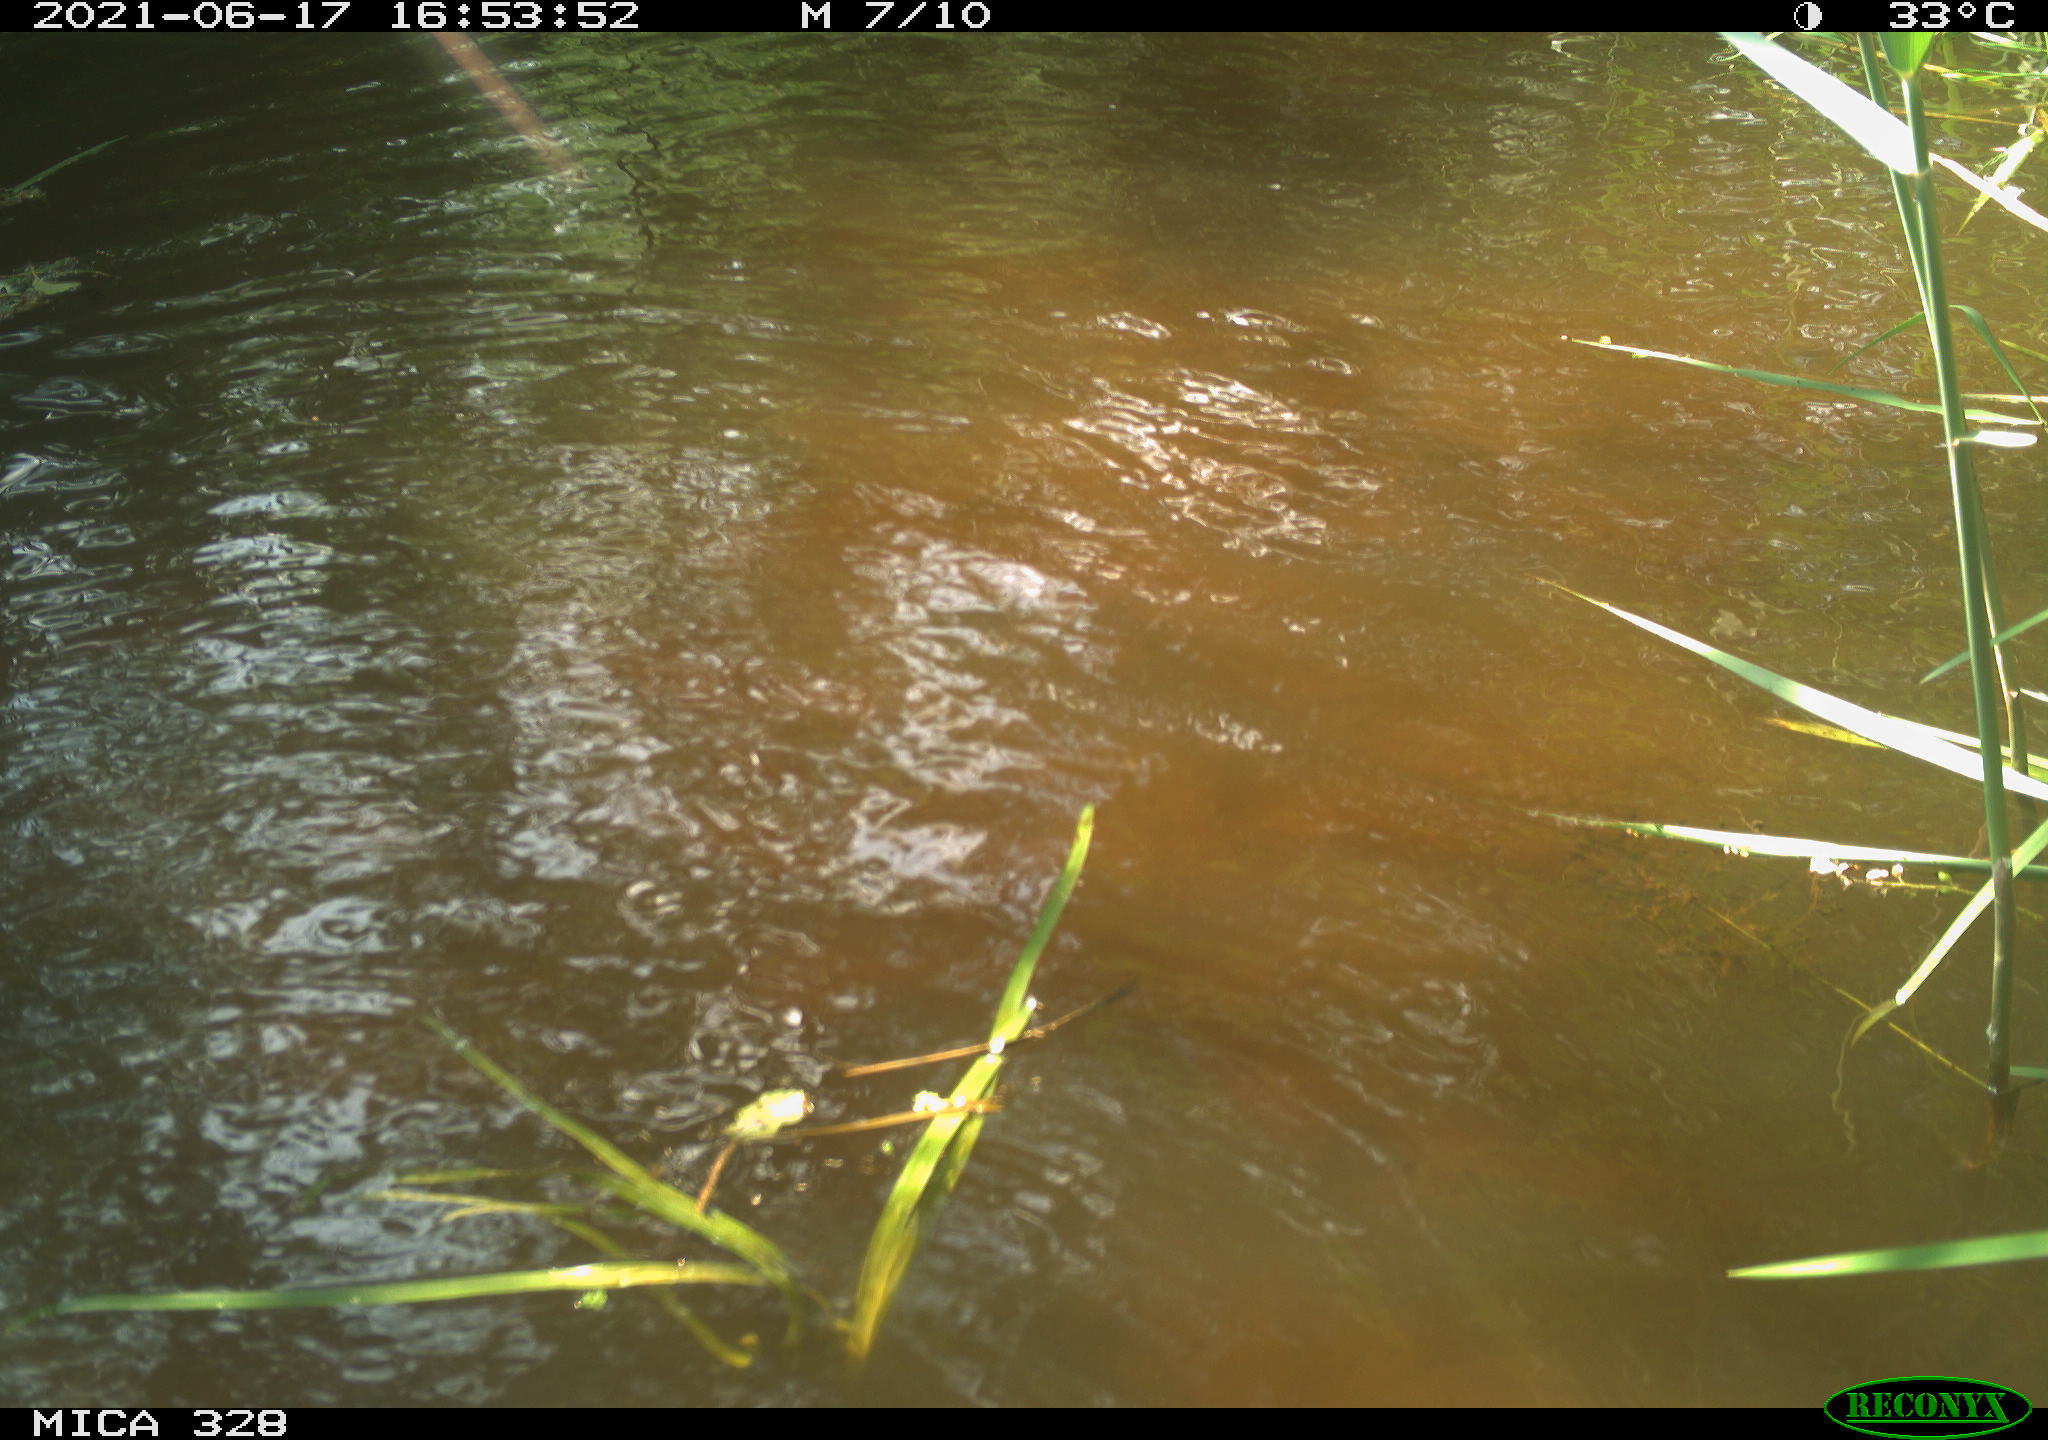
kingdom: Animalia
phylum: Chordata
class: Mammalia
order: Rodentia
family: Cricetidae
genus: Ondatra
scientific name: Ondatra zibethicus
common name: Muskrat
